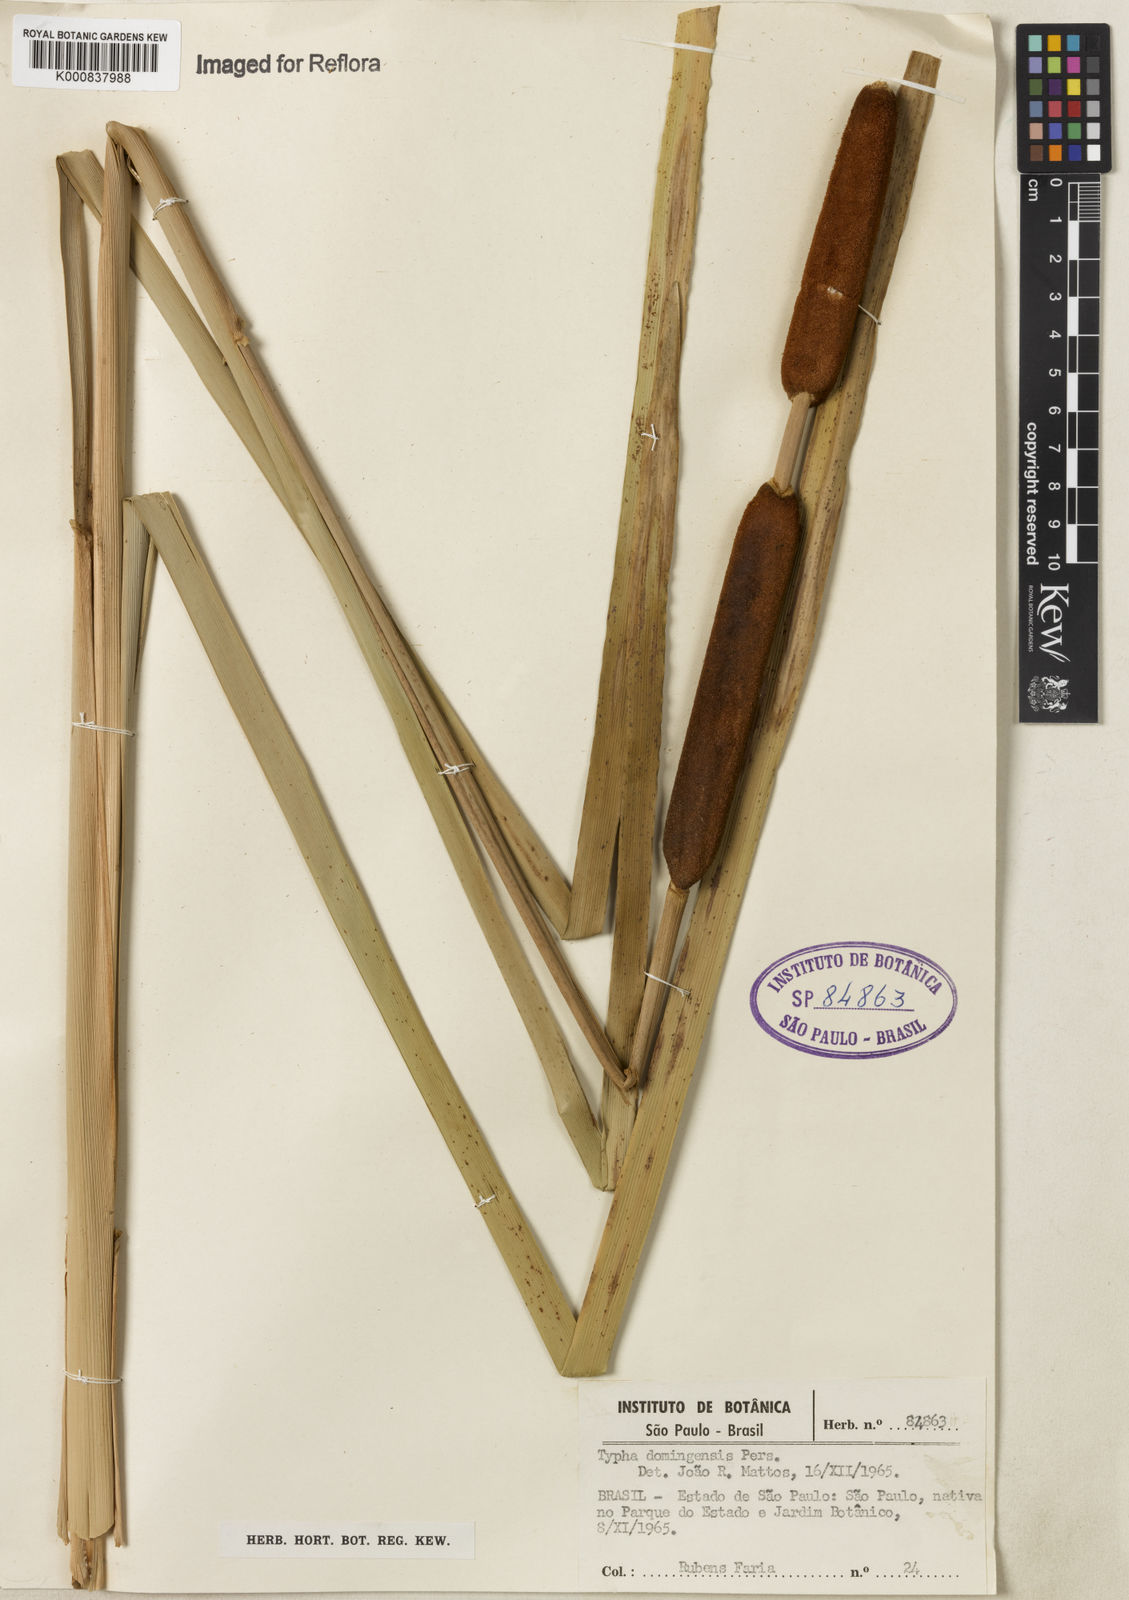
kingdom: Plantae
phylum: Tracheophyta
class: Liliopsida
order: Poales
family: Typhaceae
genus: Typha
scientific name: Typha
